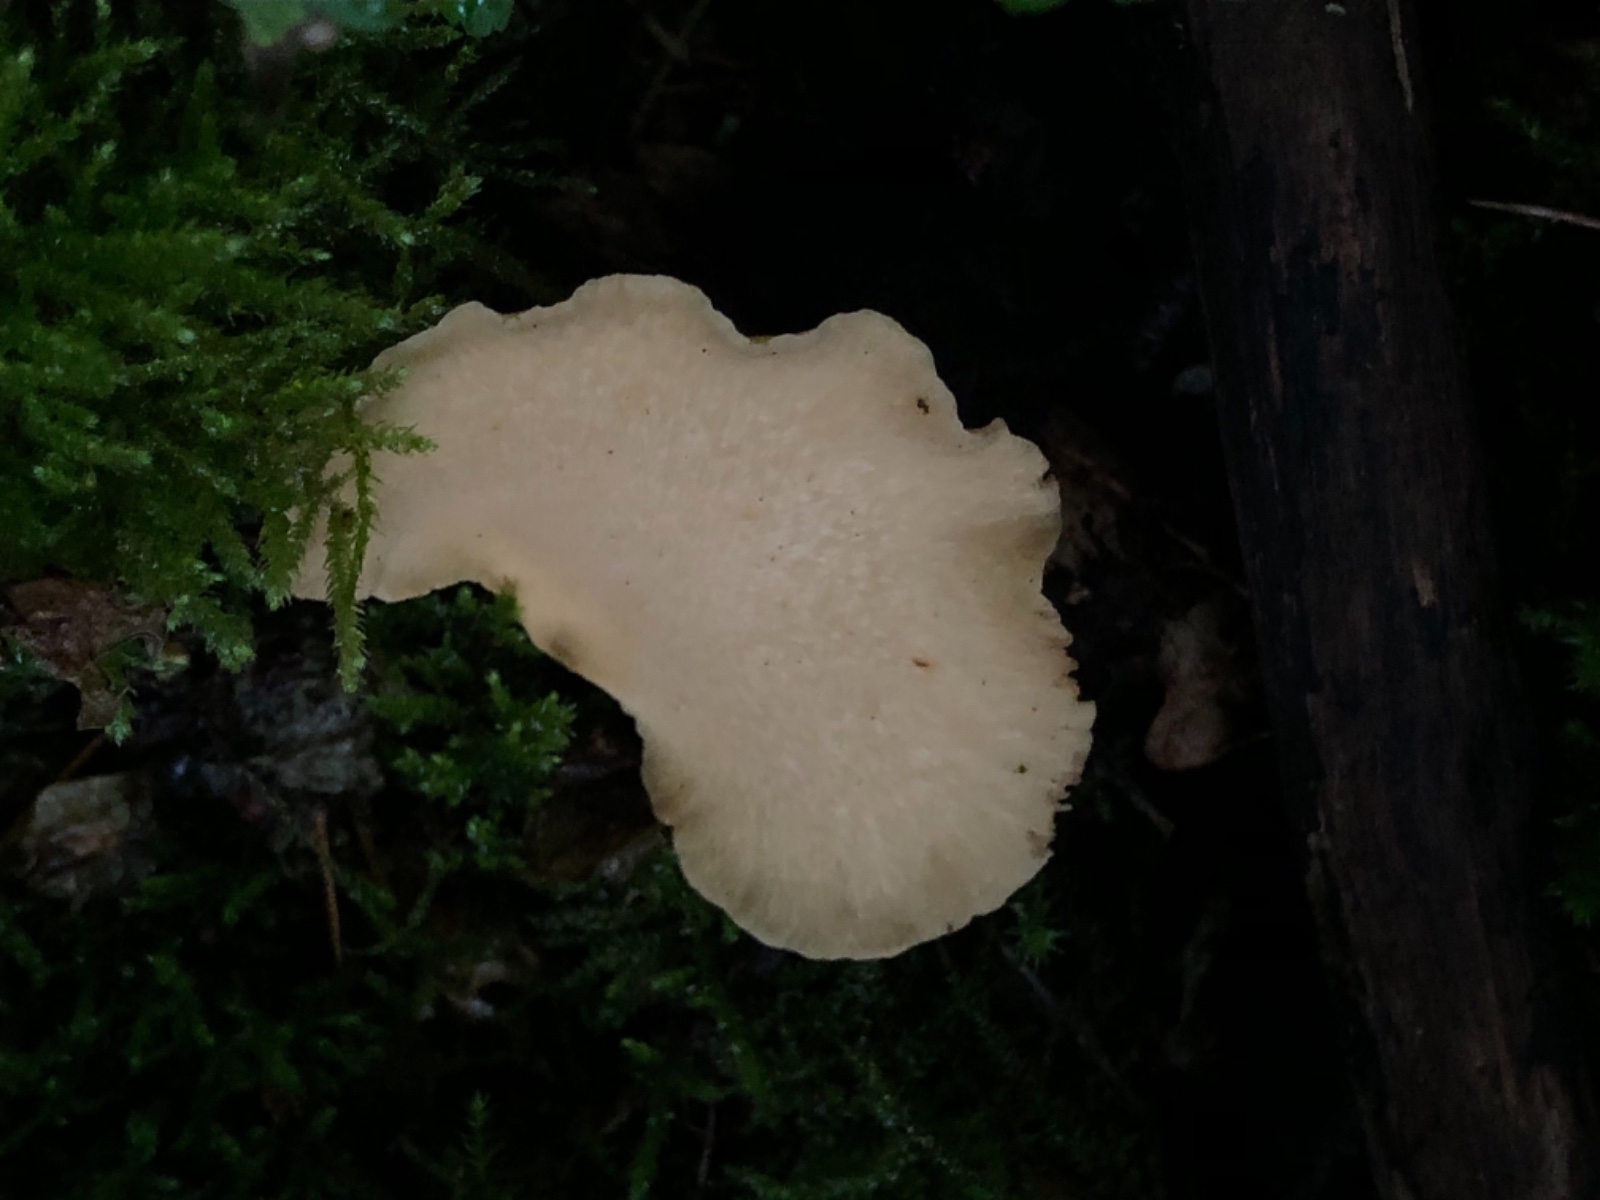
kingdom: Fungi
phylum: Basidiomycota
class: Agaricomycetes
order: Polyporales
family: Polyporaceae
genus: Cerioporus
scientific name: Cerioporus varius
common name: foranderlig stilkporesvamp
